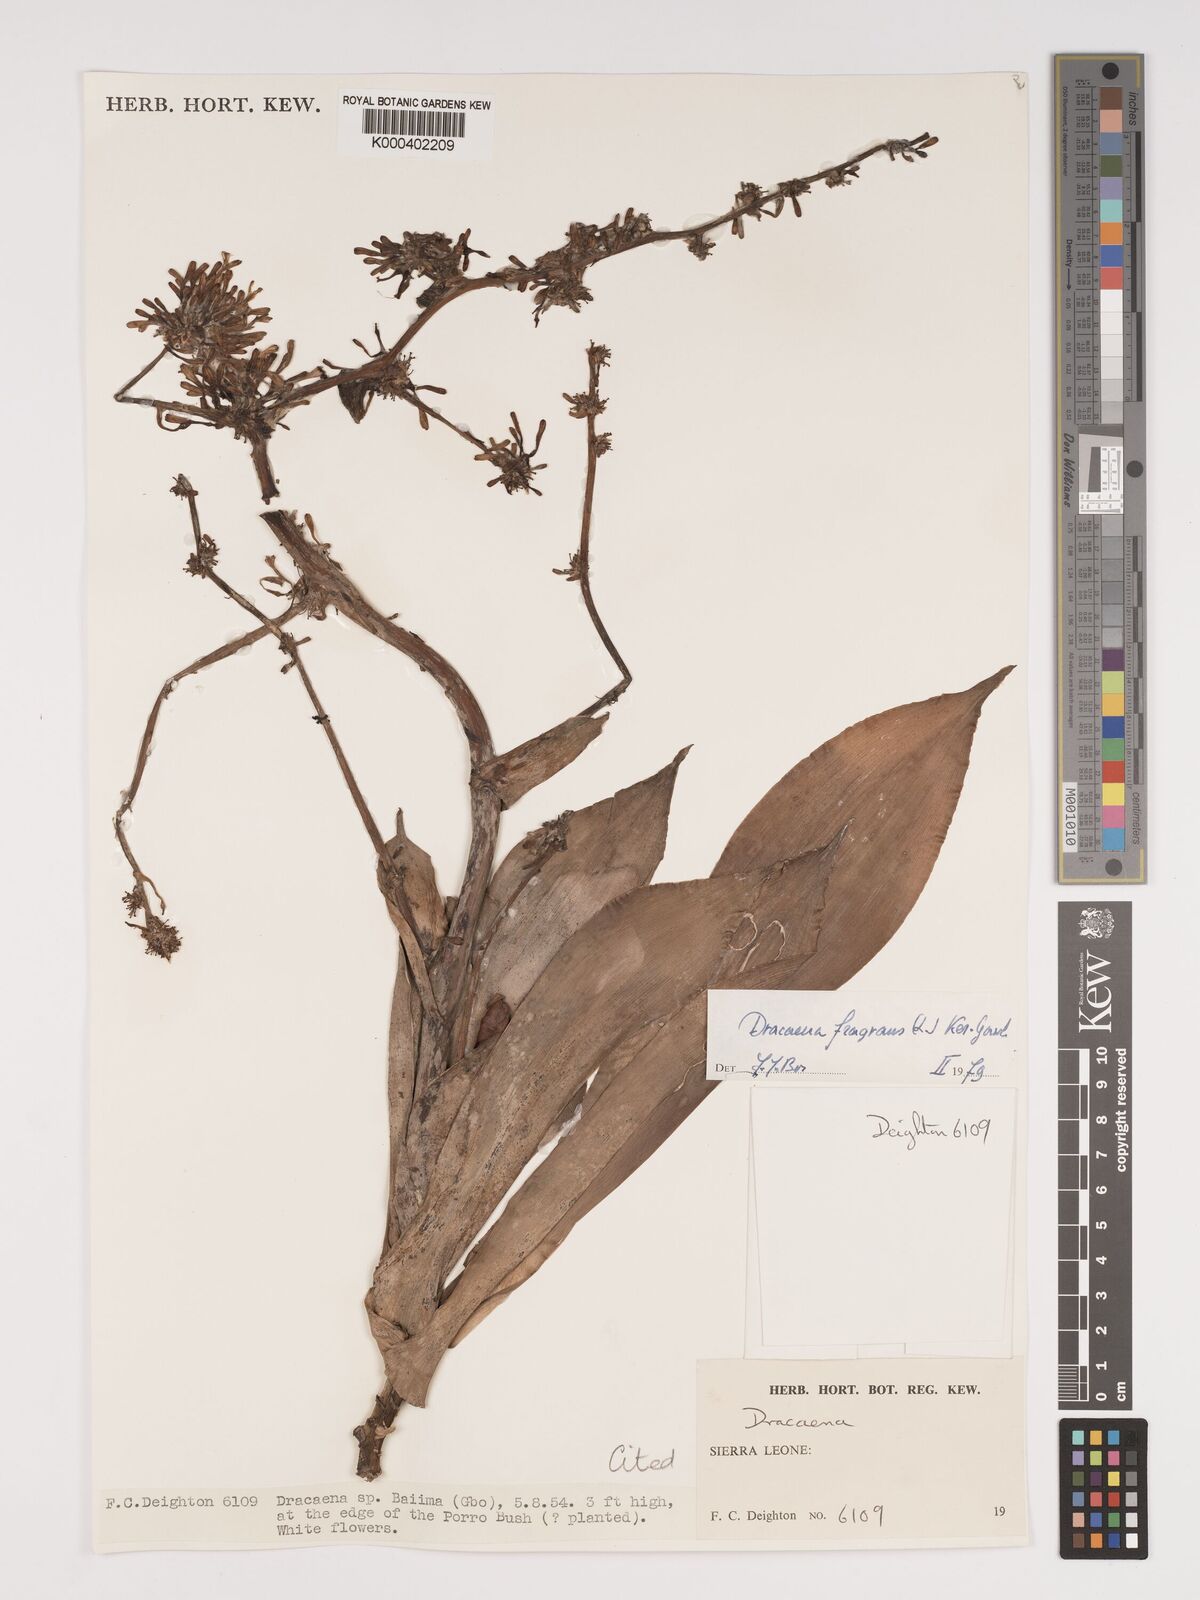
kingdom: Plantae
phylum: Tracheophyta
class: Liliopsida
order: Asparagales
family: Asparagaceae
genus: Dracaena
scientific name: Dracaena fragrans
